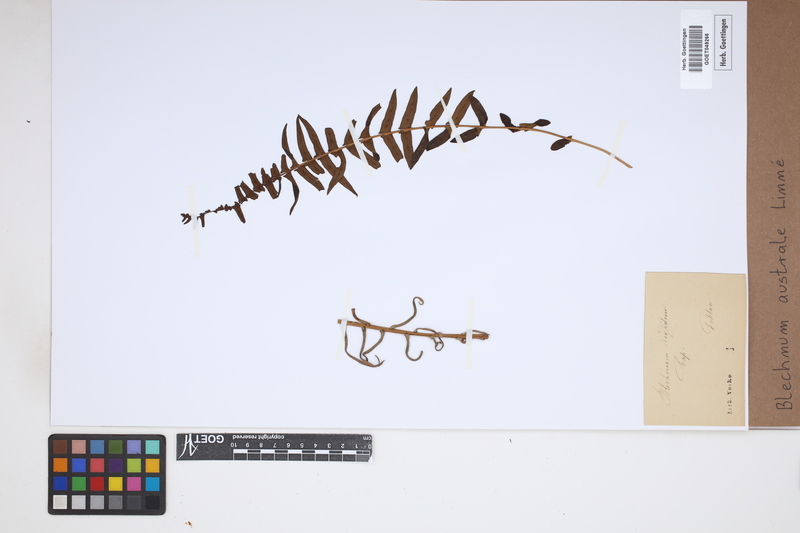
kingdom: Plantae
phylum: Tracheophyta
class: Polypodiopsida
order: Polypodiales
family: Blechnaceae
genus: Blechnum
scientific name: Blechnum australe
